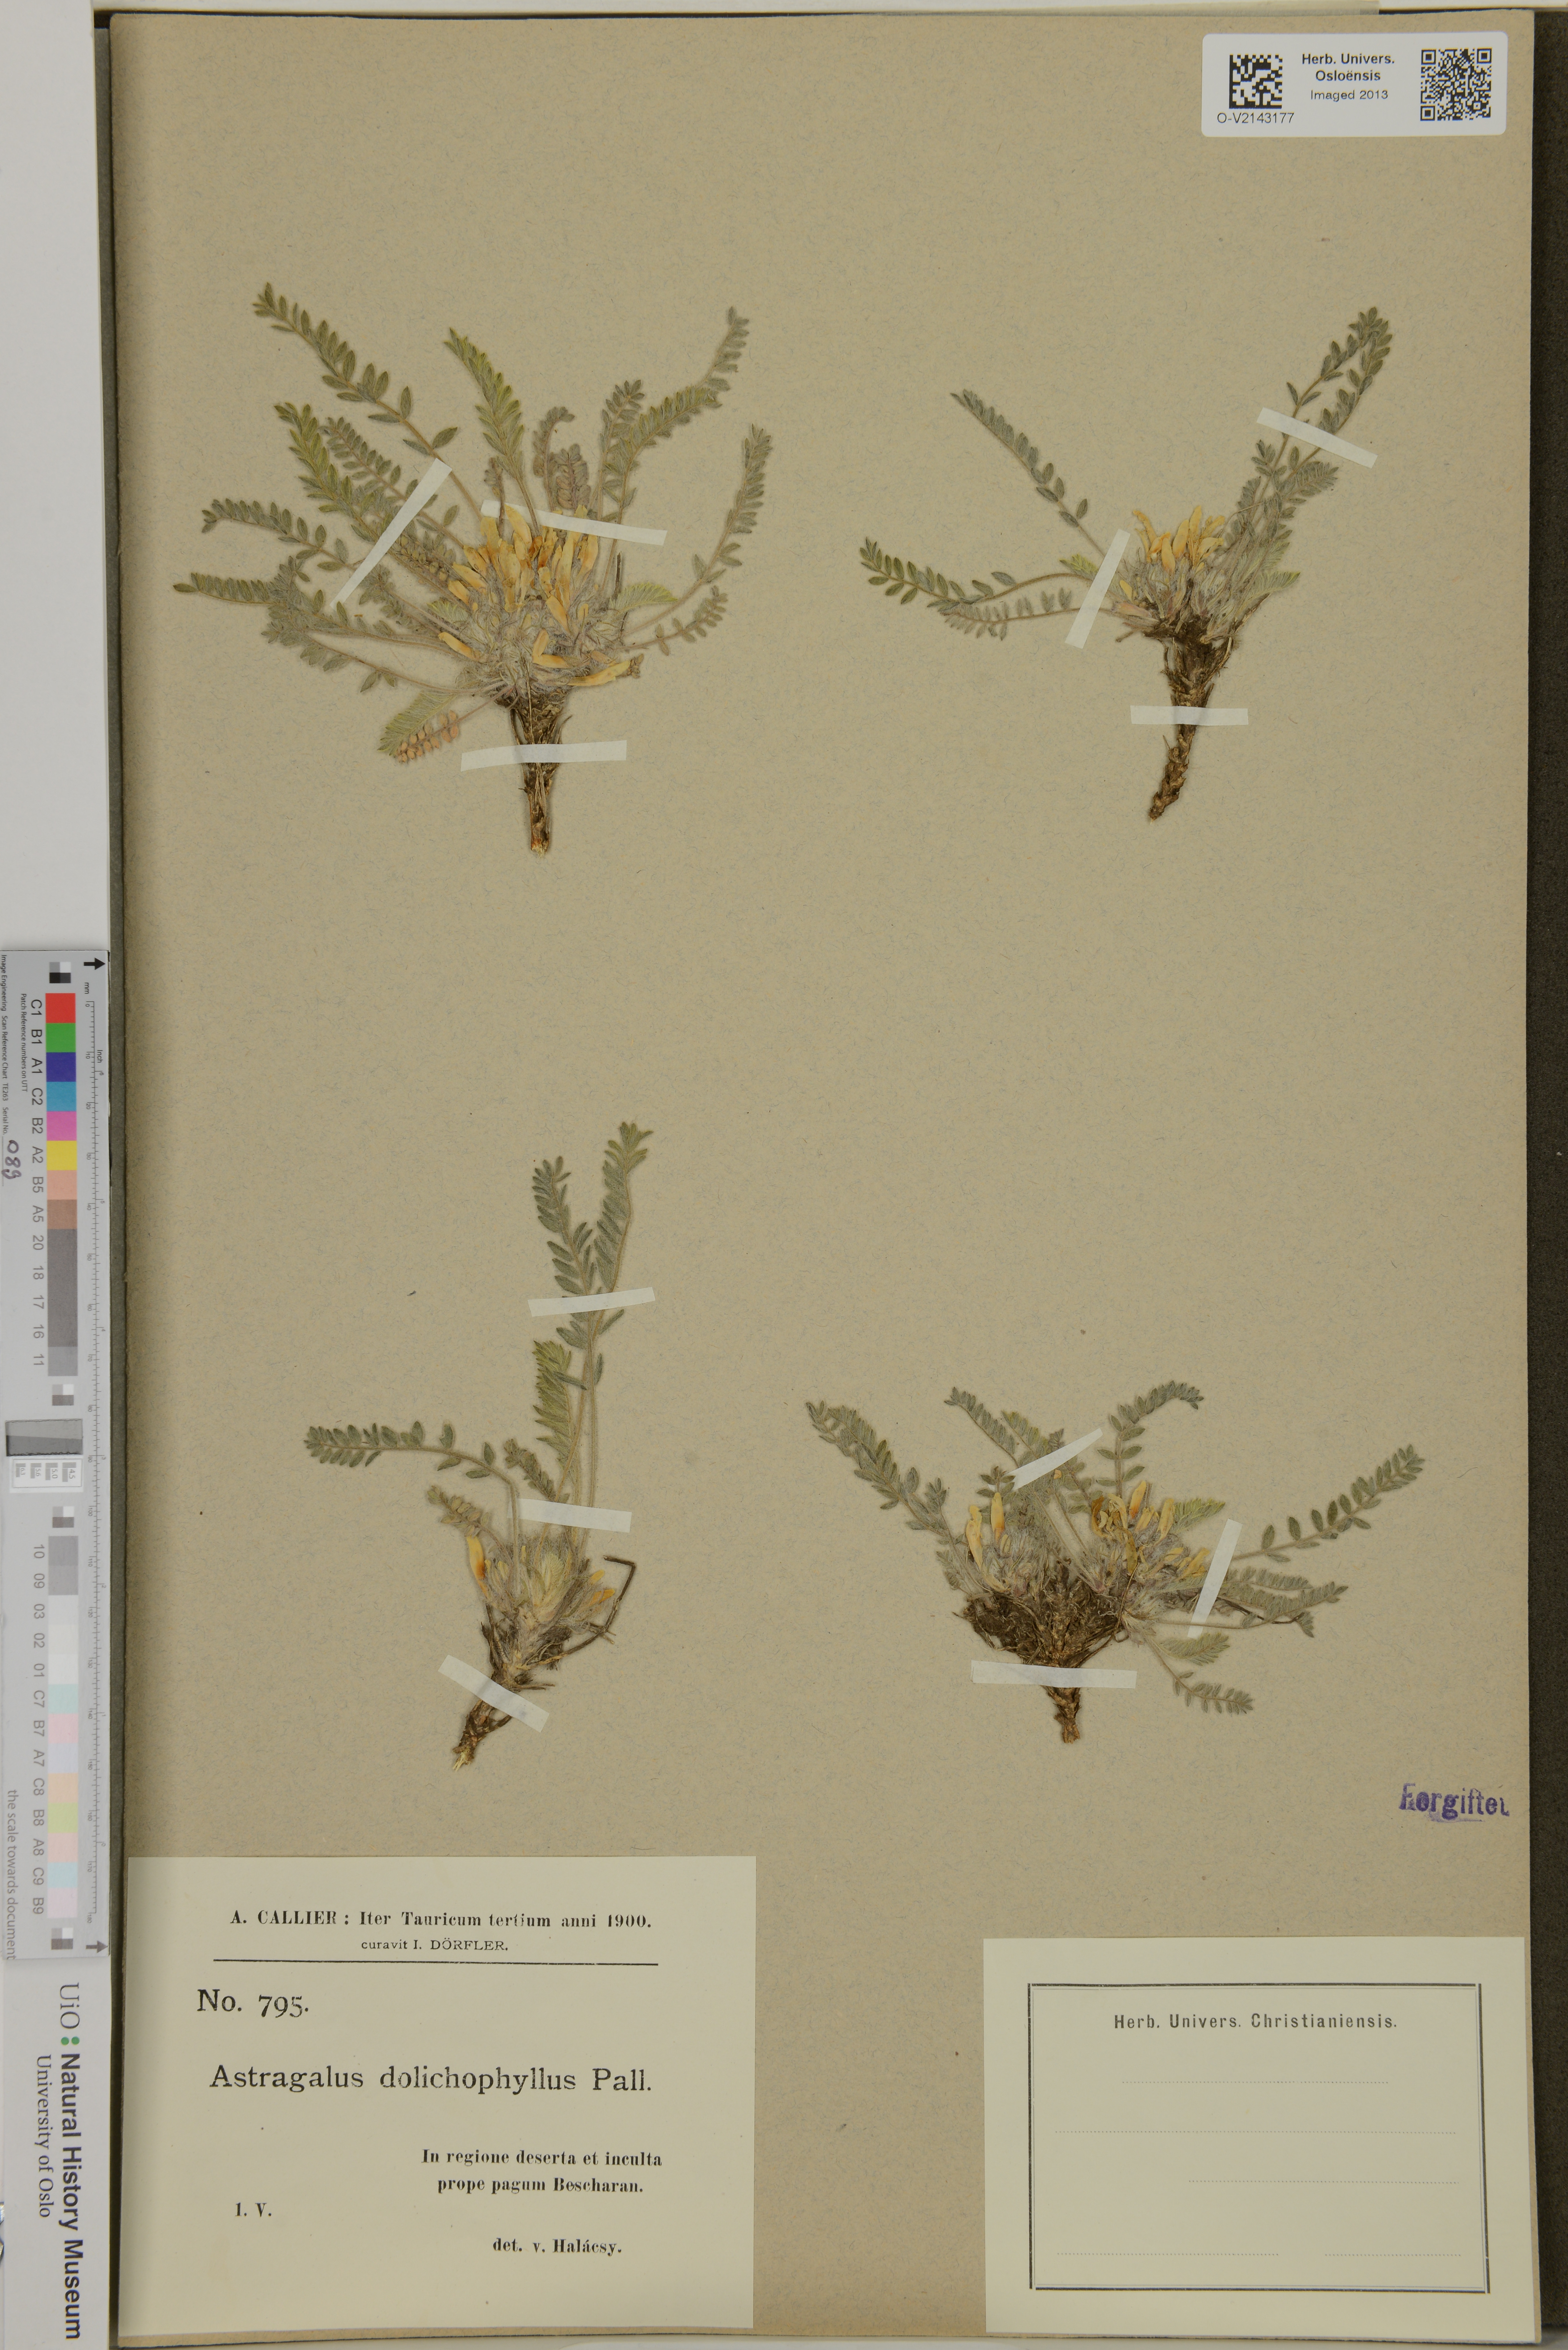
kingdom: Plantae
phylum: Tracheophyta
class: Magnoliopsida
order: Fabales
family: Fabaceae
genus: Astragalus
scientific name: Astragalus dolichophyllus
